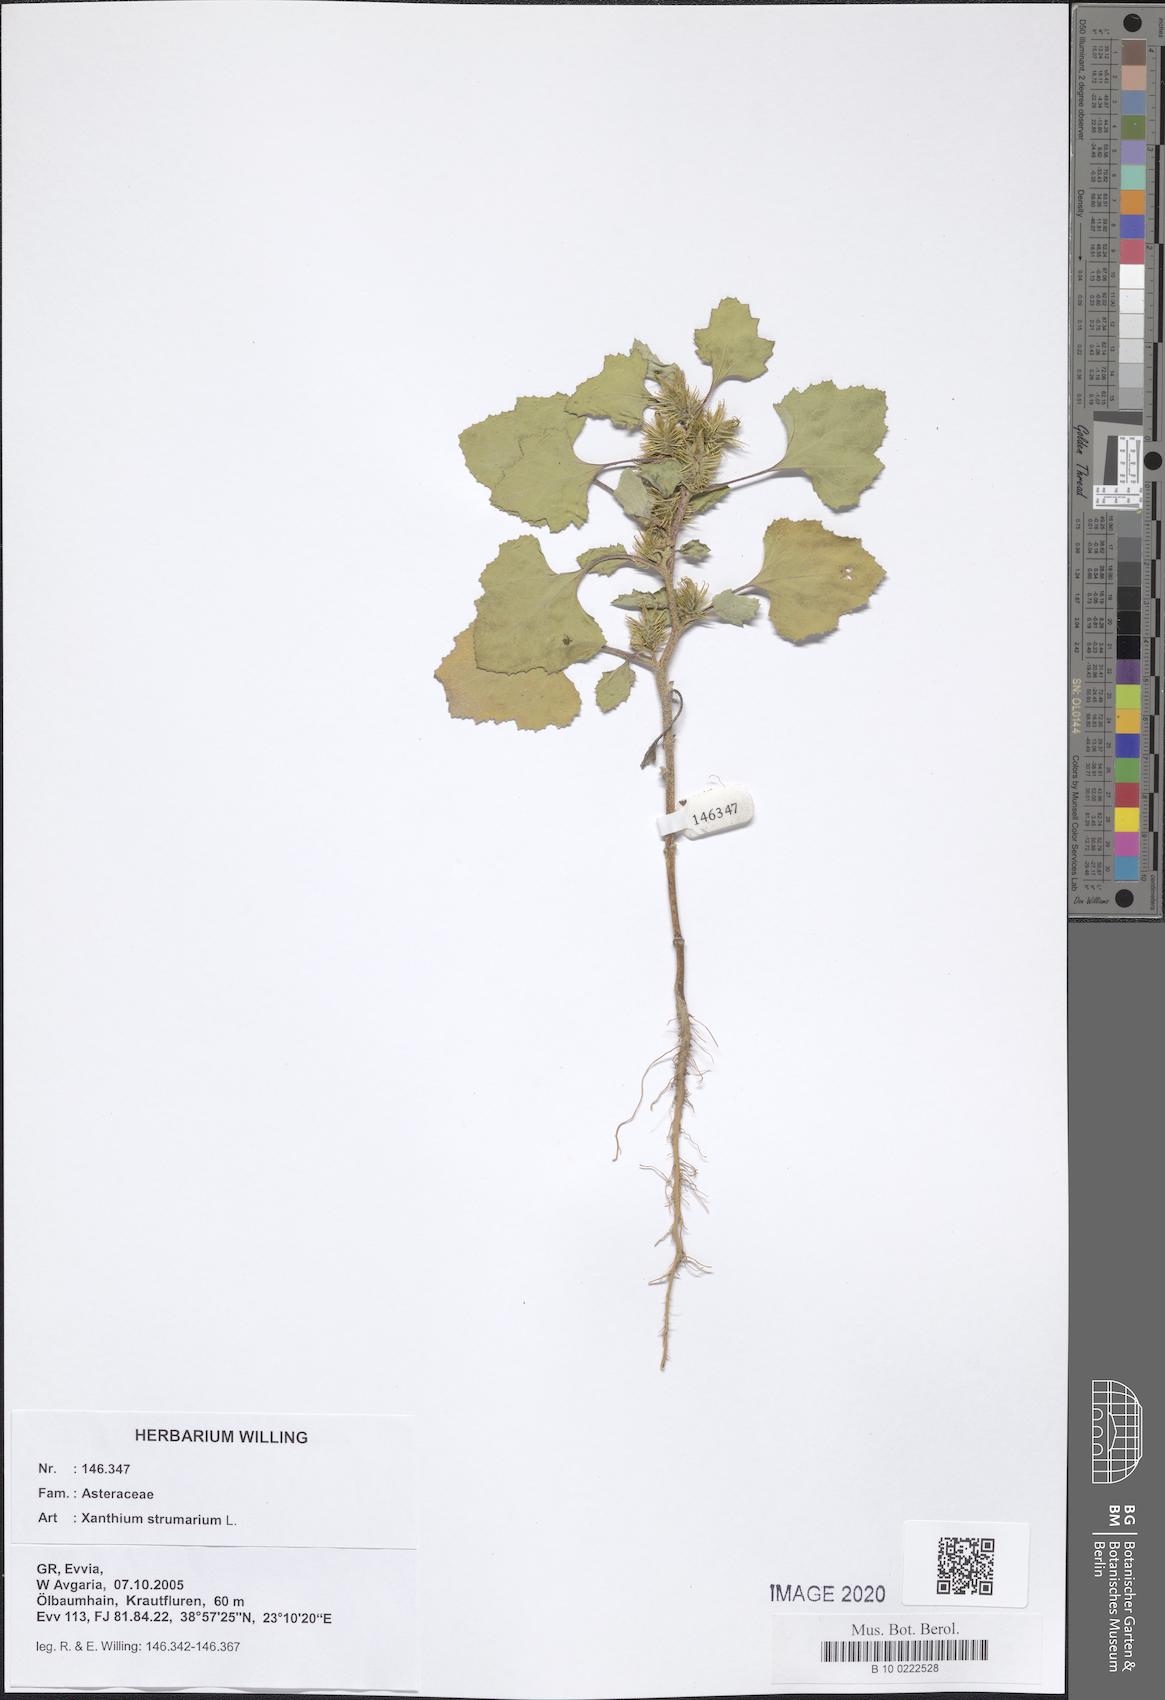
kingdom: Plantae
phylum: Tracheophyta
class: Magnoliopsida
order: Asterales
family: Asteraceae
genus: Xanthium
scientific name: Xanthium strumarium
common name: Rough cocklebur
